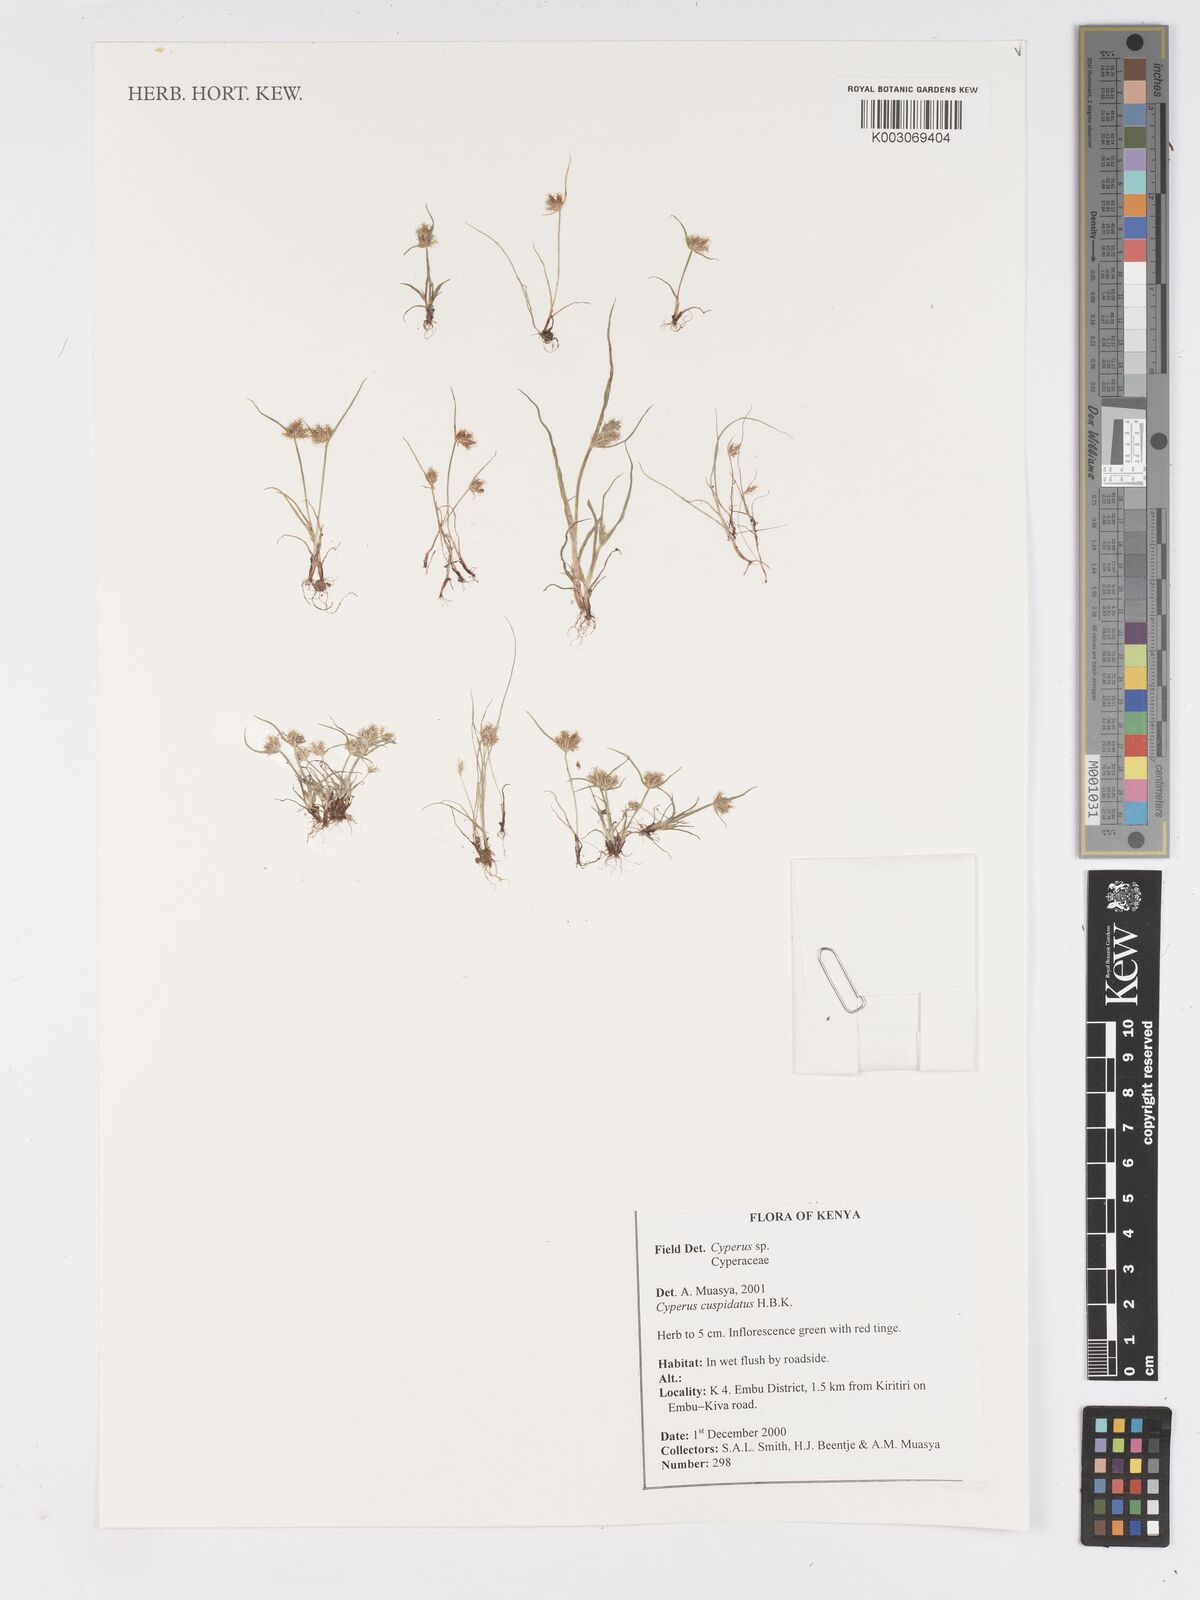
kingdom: Plantae
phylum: Tracheophyta
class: Liliopsida
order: Poales
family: Cyperaceae
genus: Cyperus
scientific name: Cyperus cuspidatus
